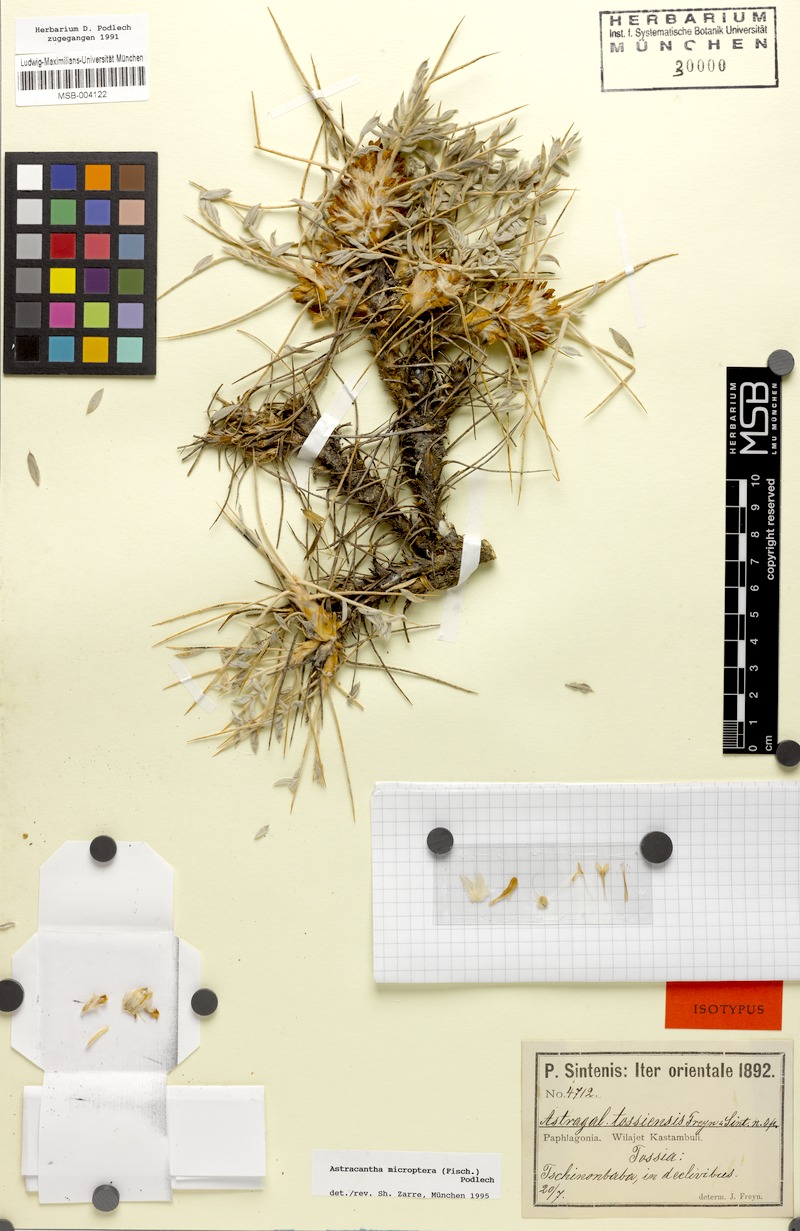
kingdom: Plantae
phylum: Tracheophyta
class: Magnoliopsida
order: Fabales
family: Fabaceae
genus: Astragalus
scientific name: Astragalus micropterus
